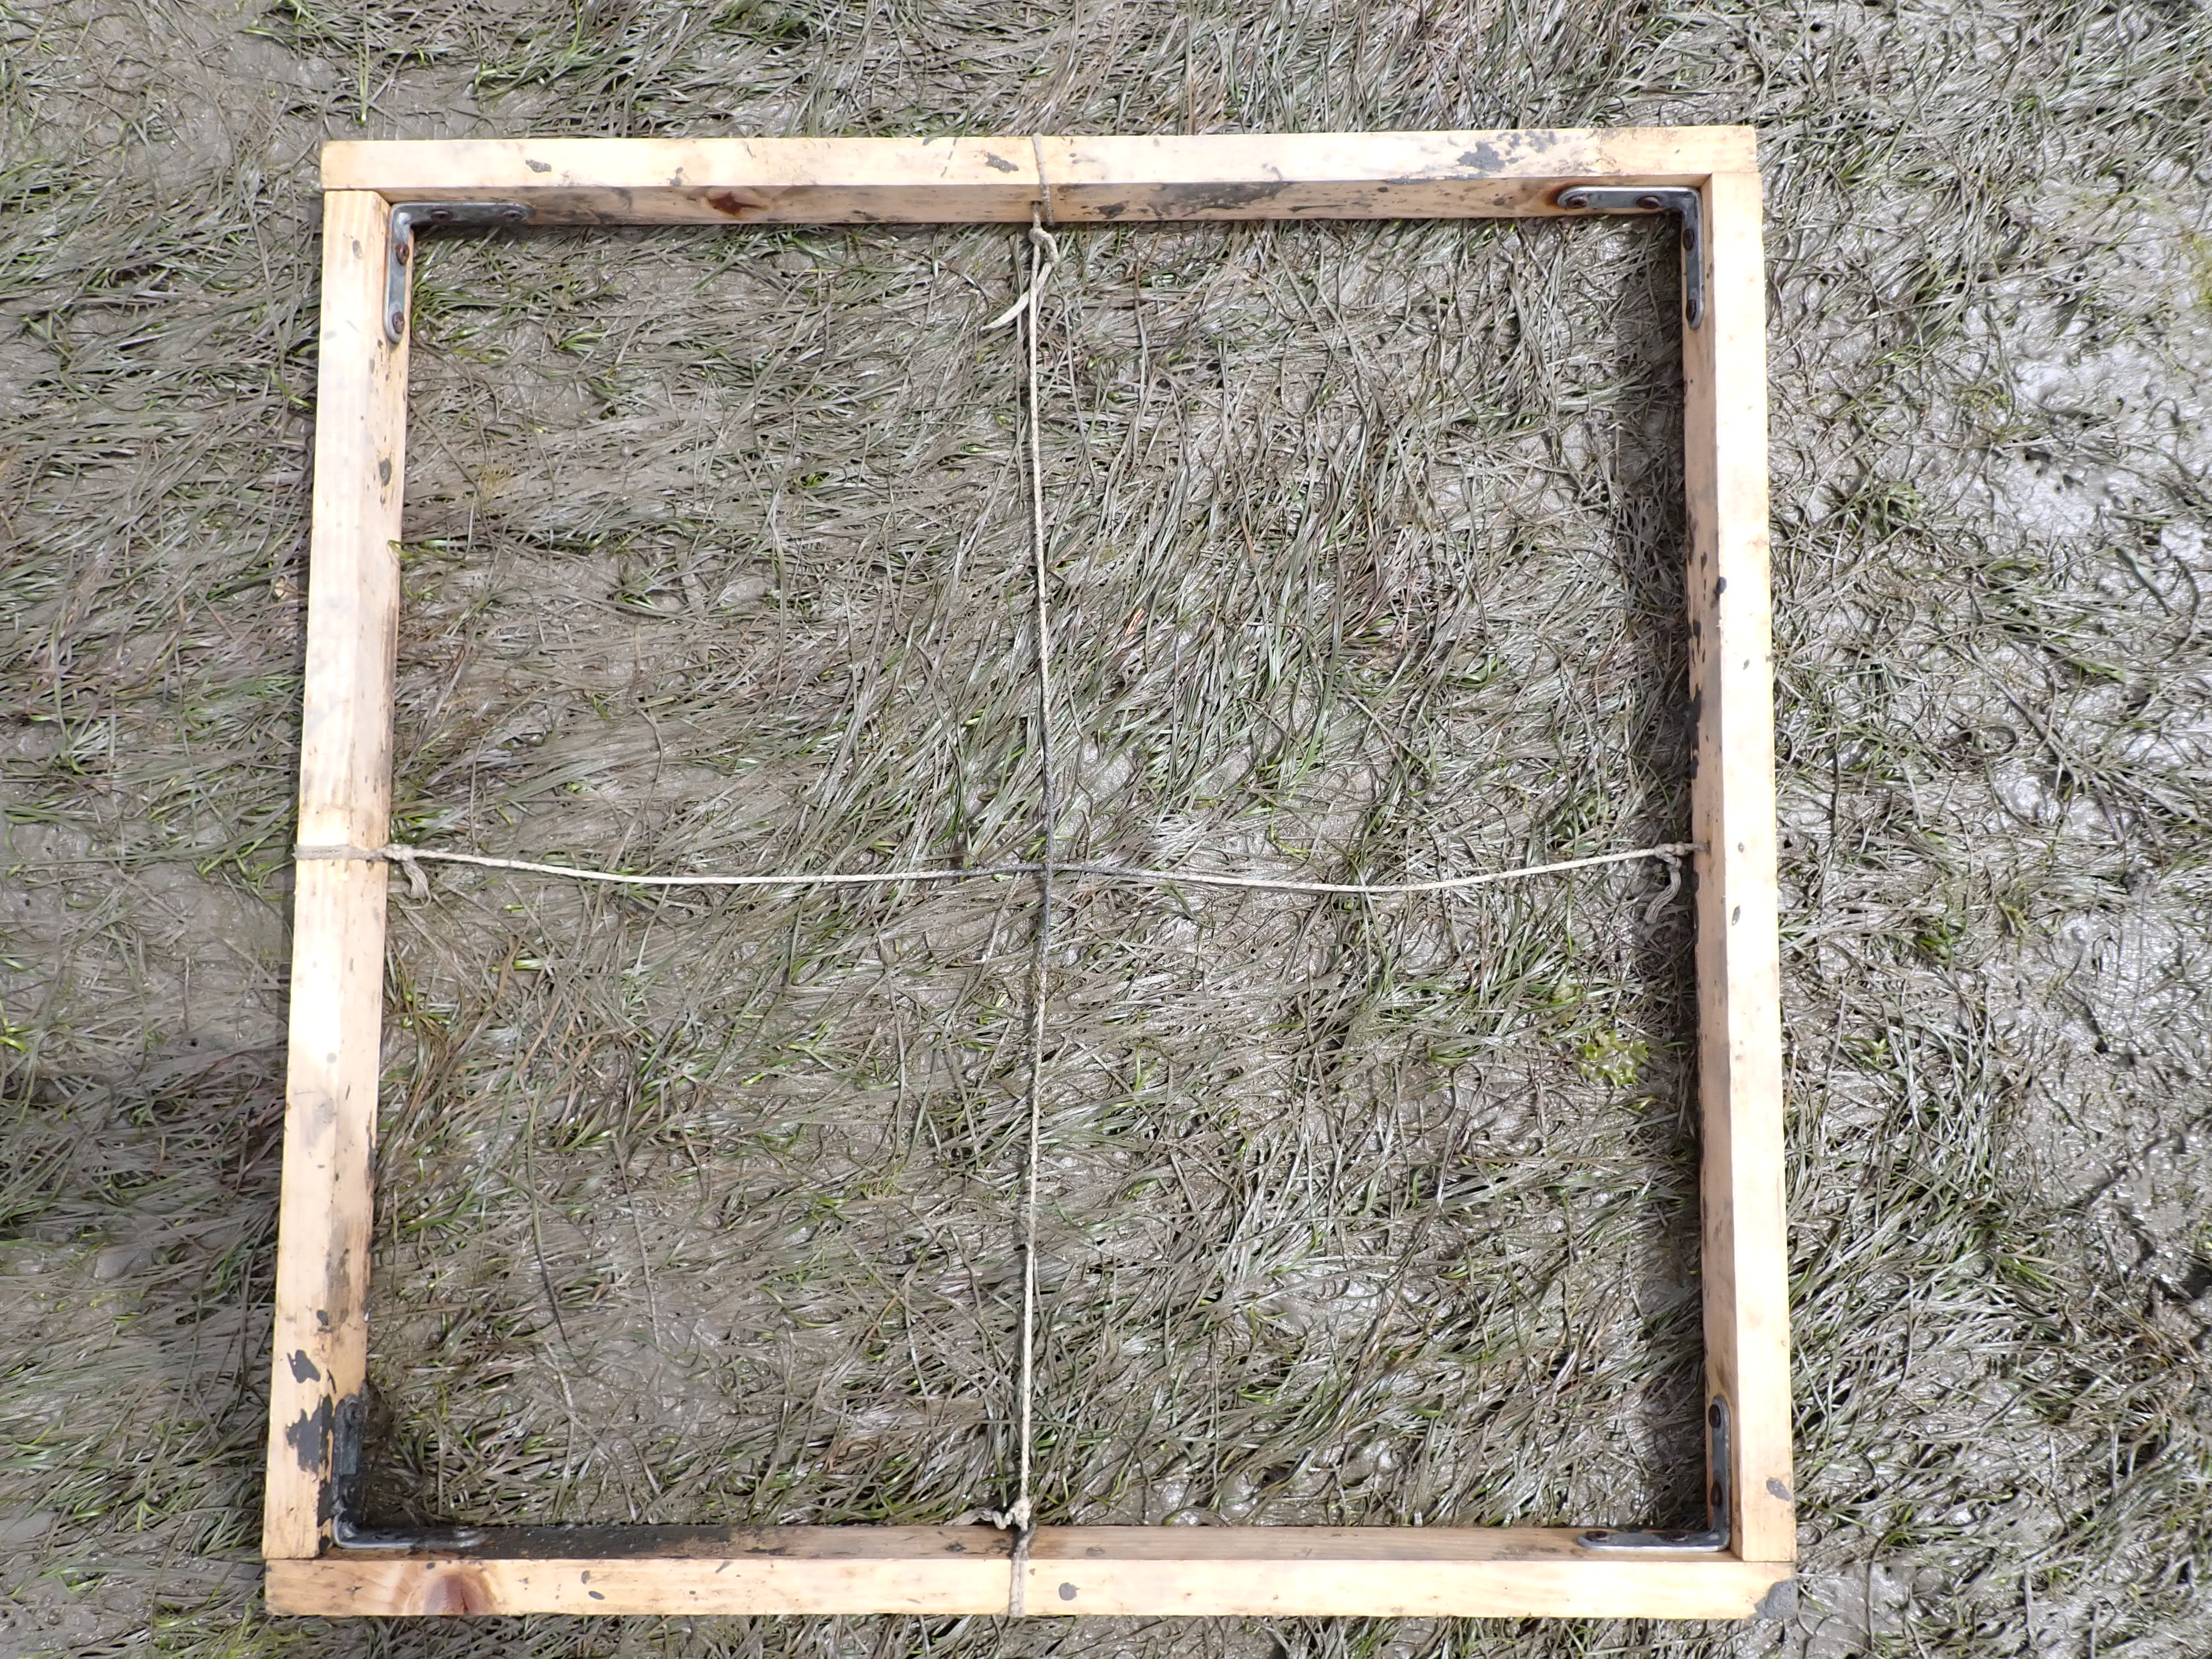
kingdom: Plantae
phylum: Chlorophyta
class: Ulvophyceae
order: Ulvales
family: Ulvaceae
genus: Ulva
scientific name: Ulva
